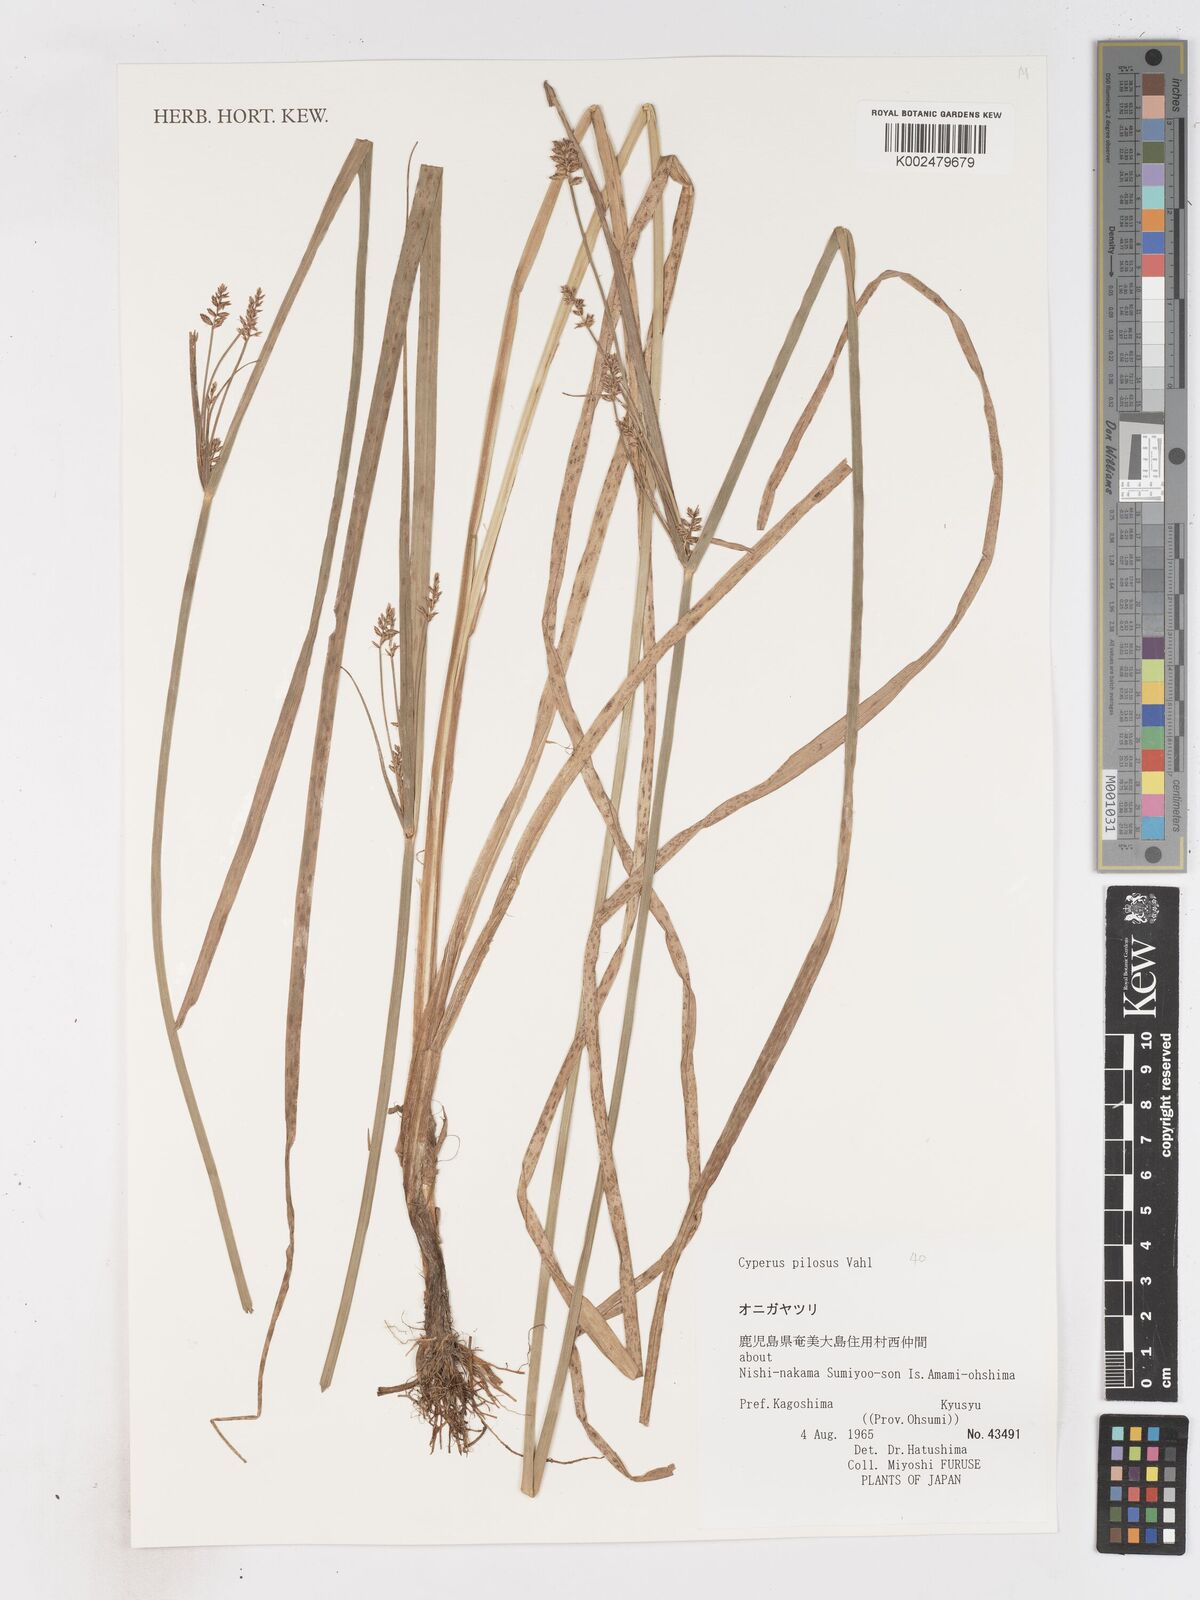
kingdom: Plantae
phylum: Tracheophyta
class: Liliopsida
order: Poales
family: Cyperaceae
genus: Cyperus
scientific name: Cyperus pilosus
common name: Fuzzy flatsedge
